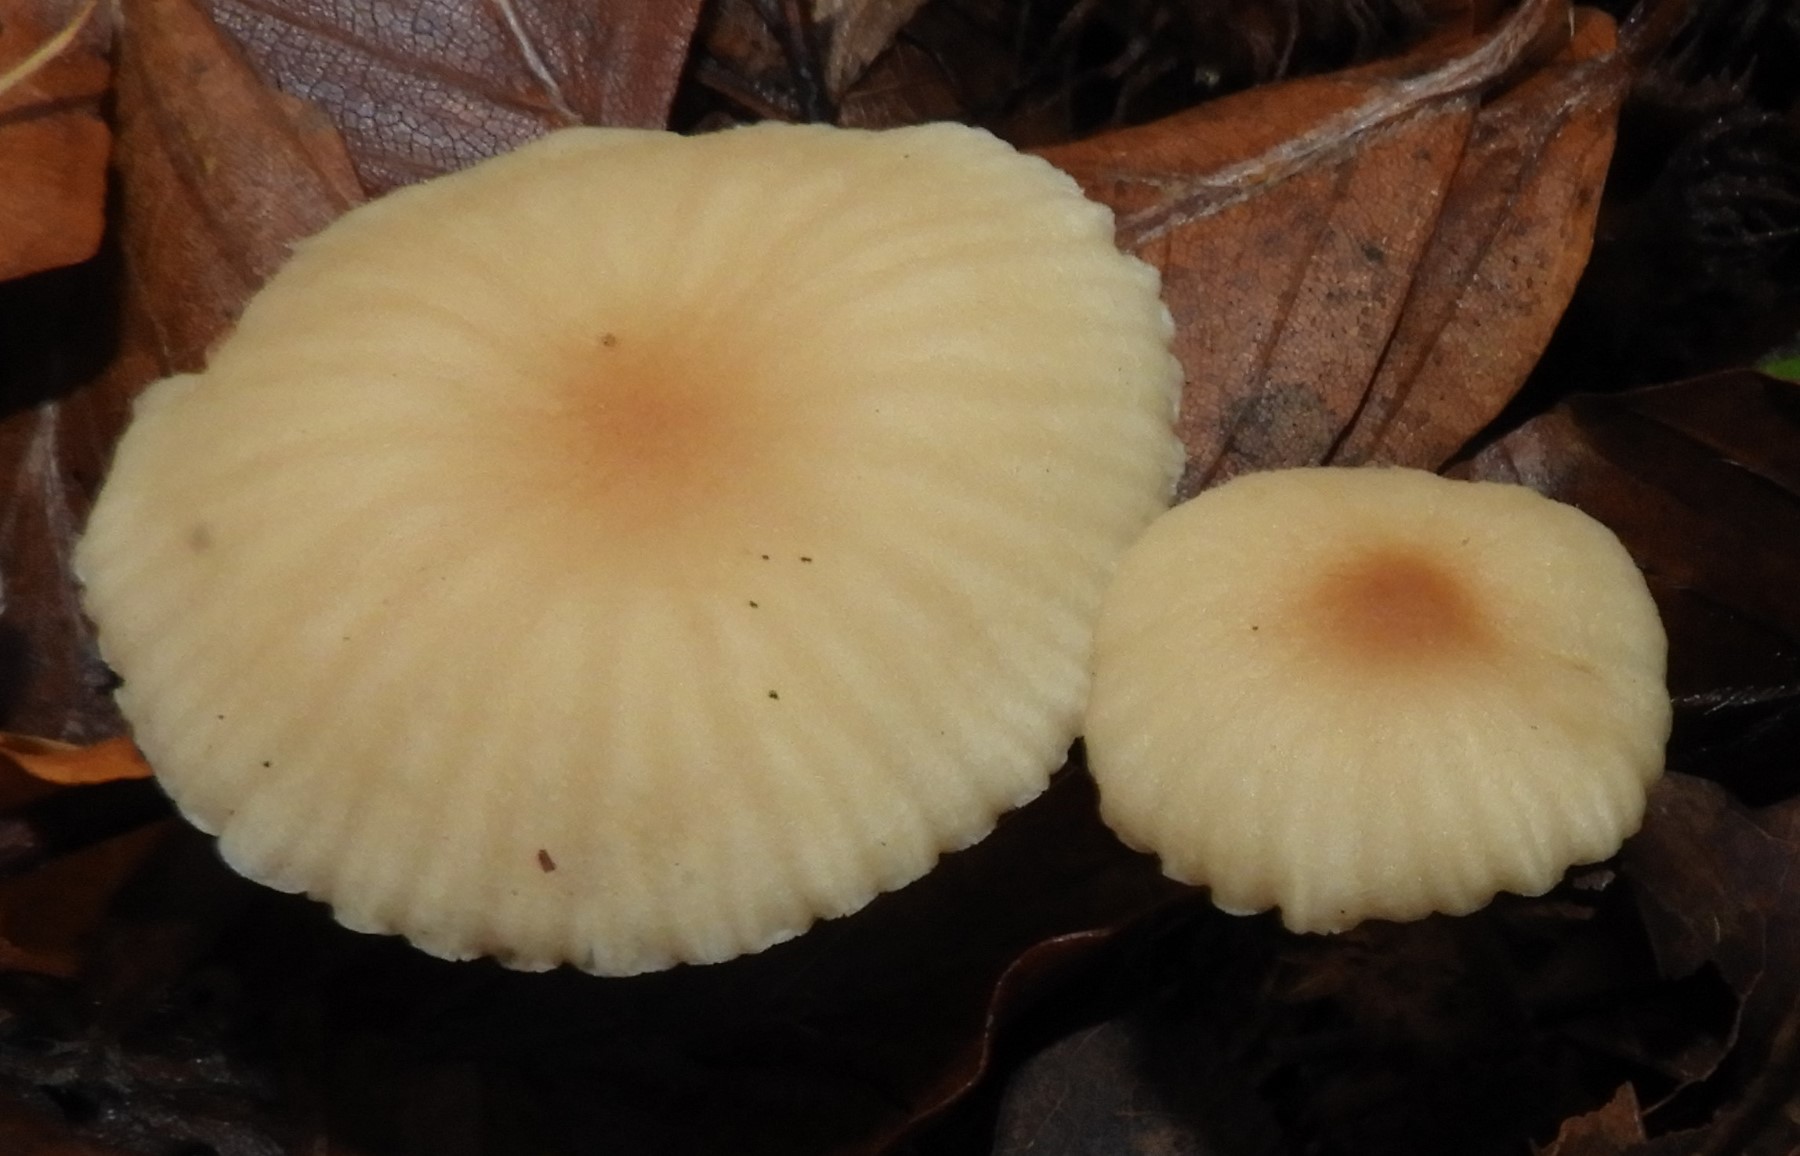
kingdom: Fungi
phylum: Basidiomycota
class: Agaricomycetes
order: Agaricales
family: Marasmiaceae
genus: Marasmius
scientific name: Marasmius torquescens
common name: filtfodet bruskhat
